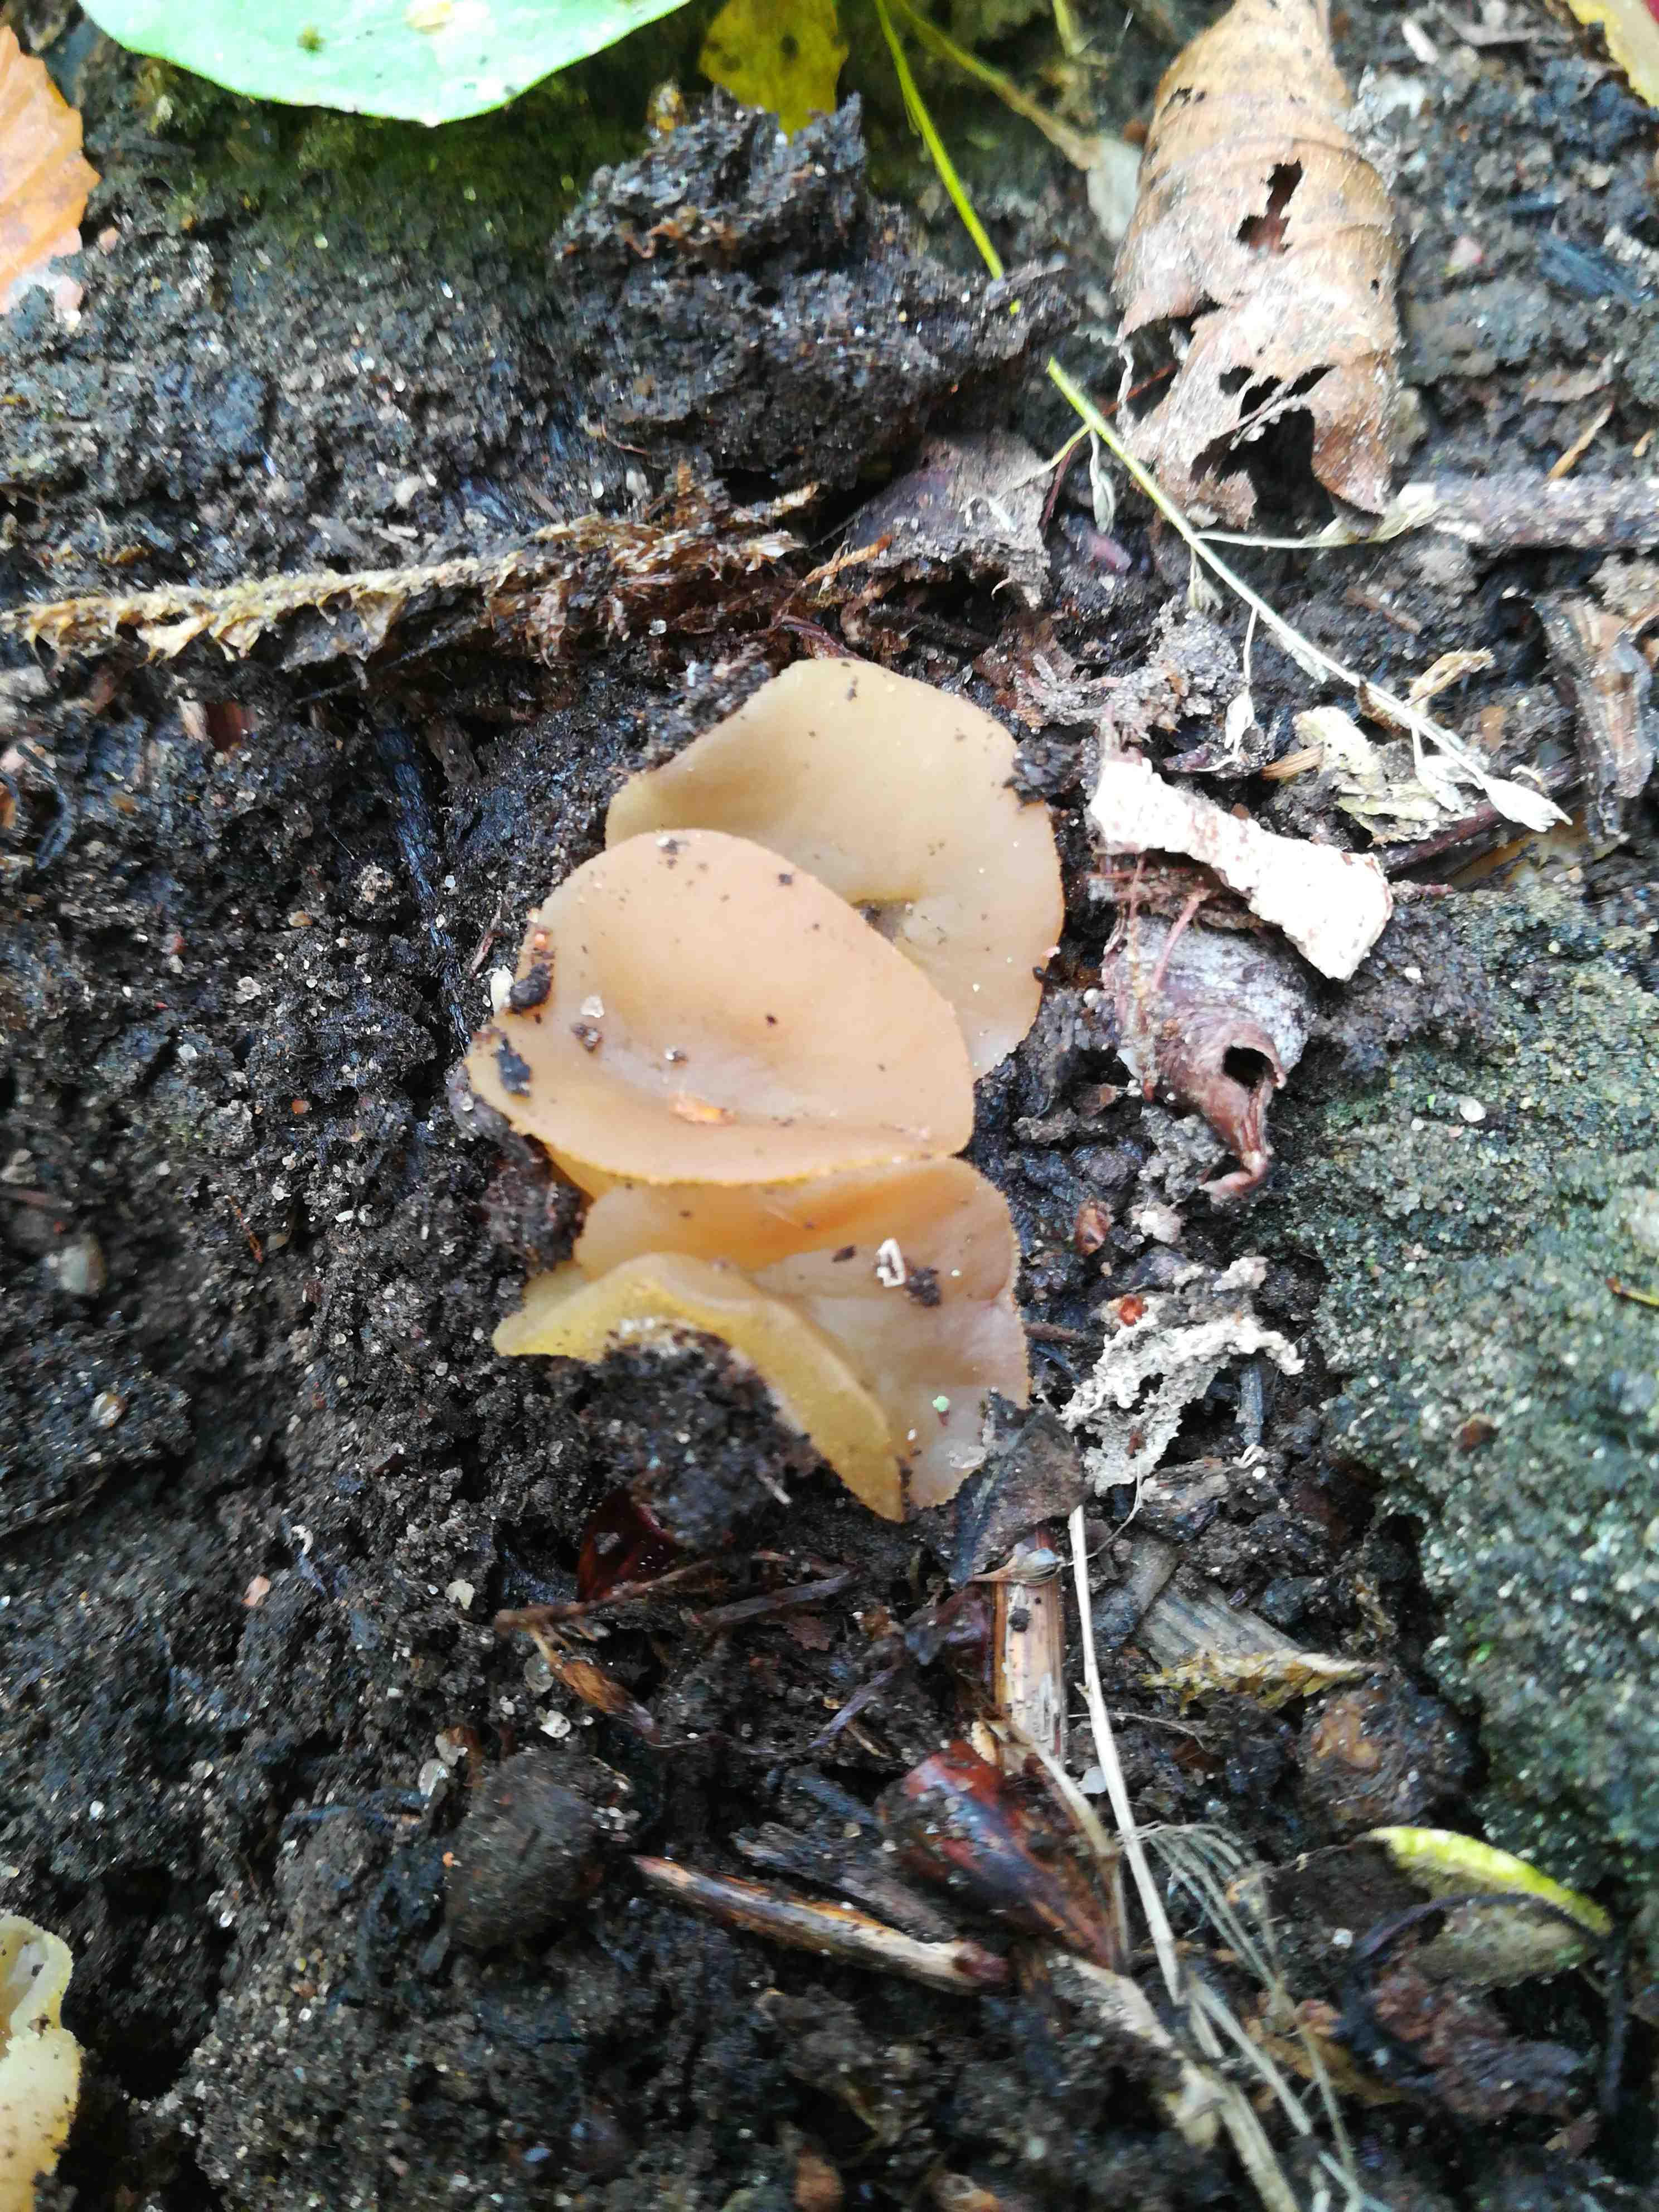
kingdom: Fungi
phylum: Ascomycota
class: Pezizomycetes
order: Pezizales
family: Pezizaceae
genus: Peziza
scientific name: Peziza
